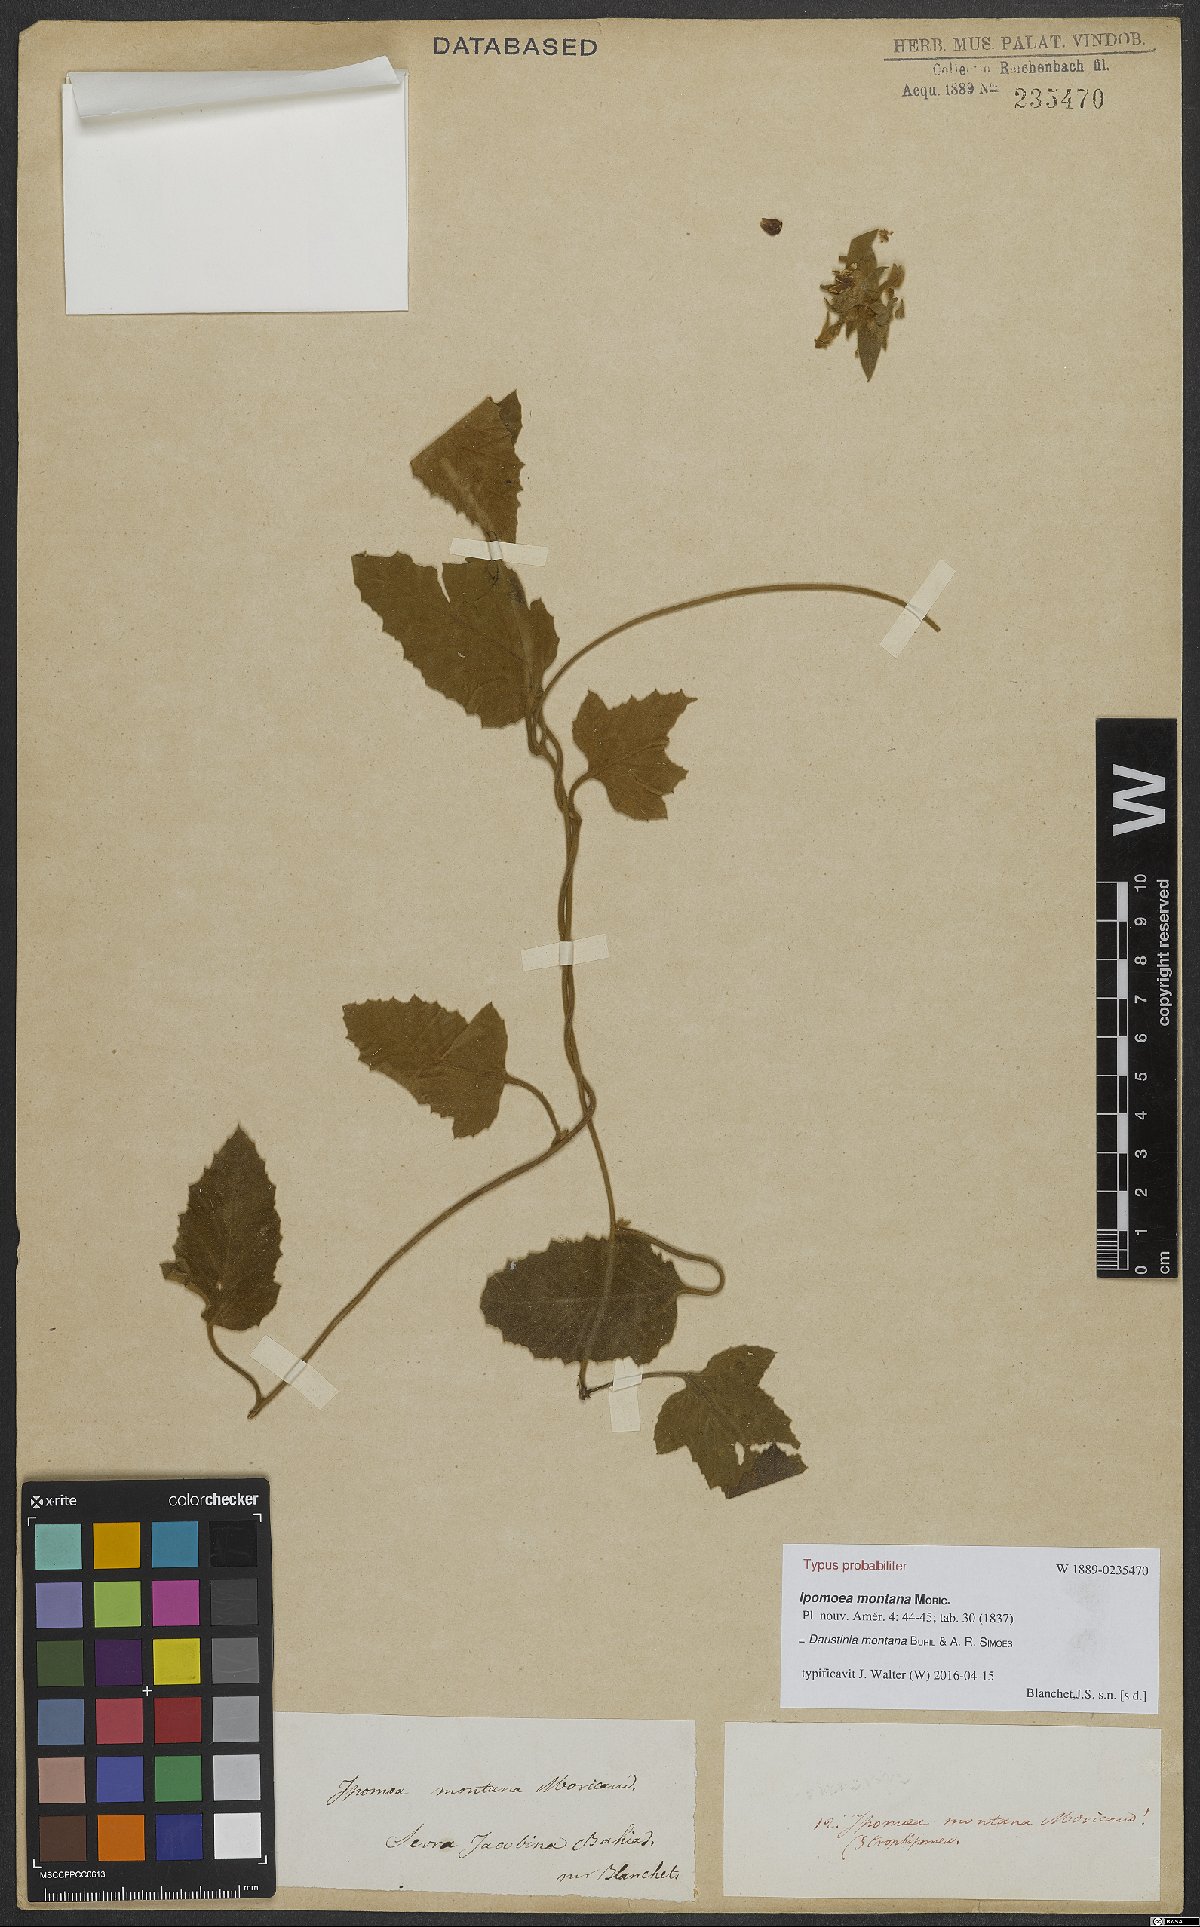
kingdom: Plantae
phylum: Tracheophyta
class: Magnoliopsida
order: Solanales
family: Convolvulaceae
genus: Daustinia
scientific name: Daustinia montana
